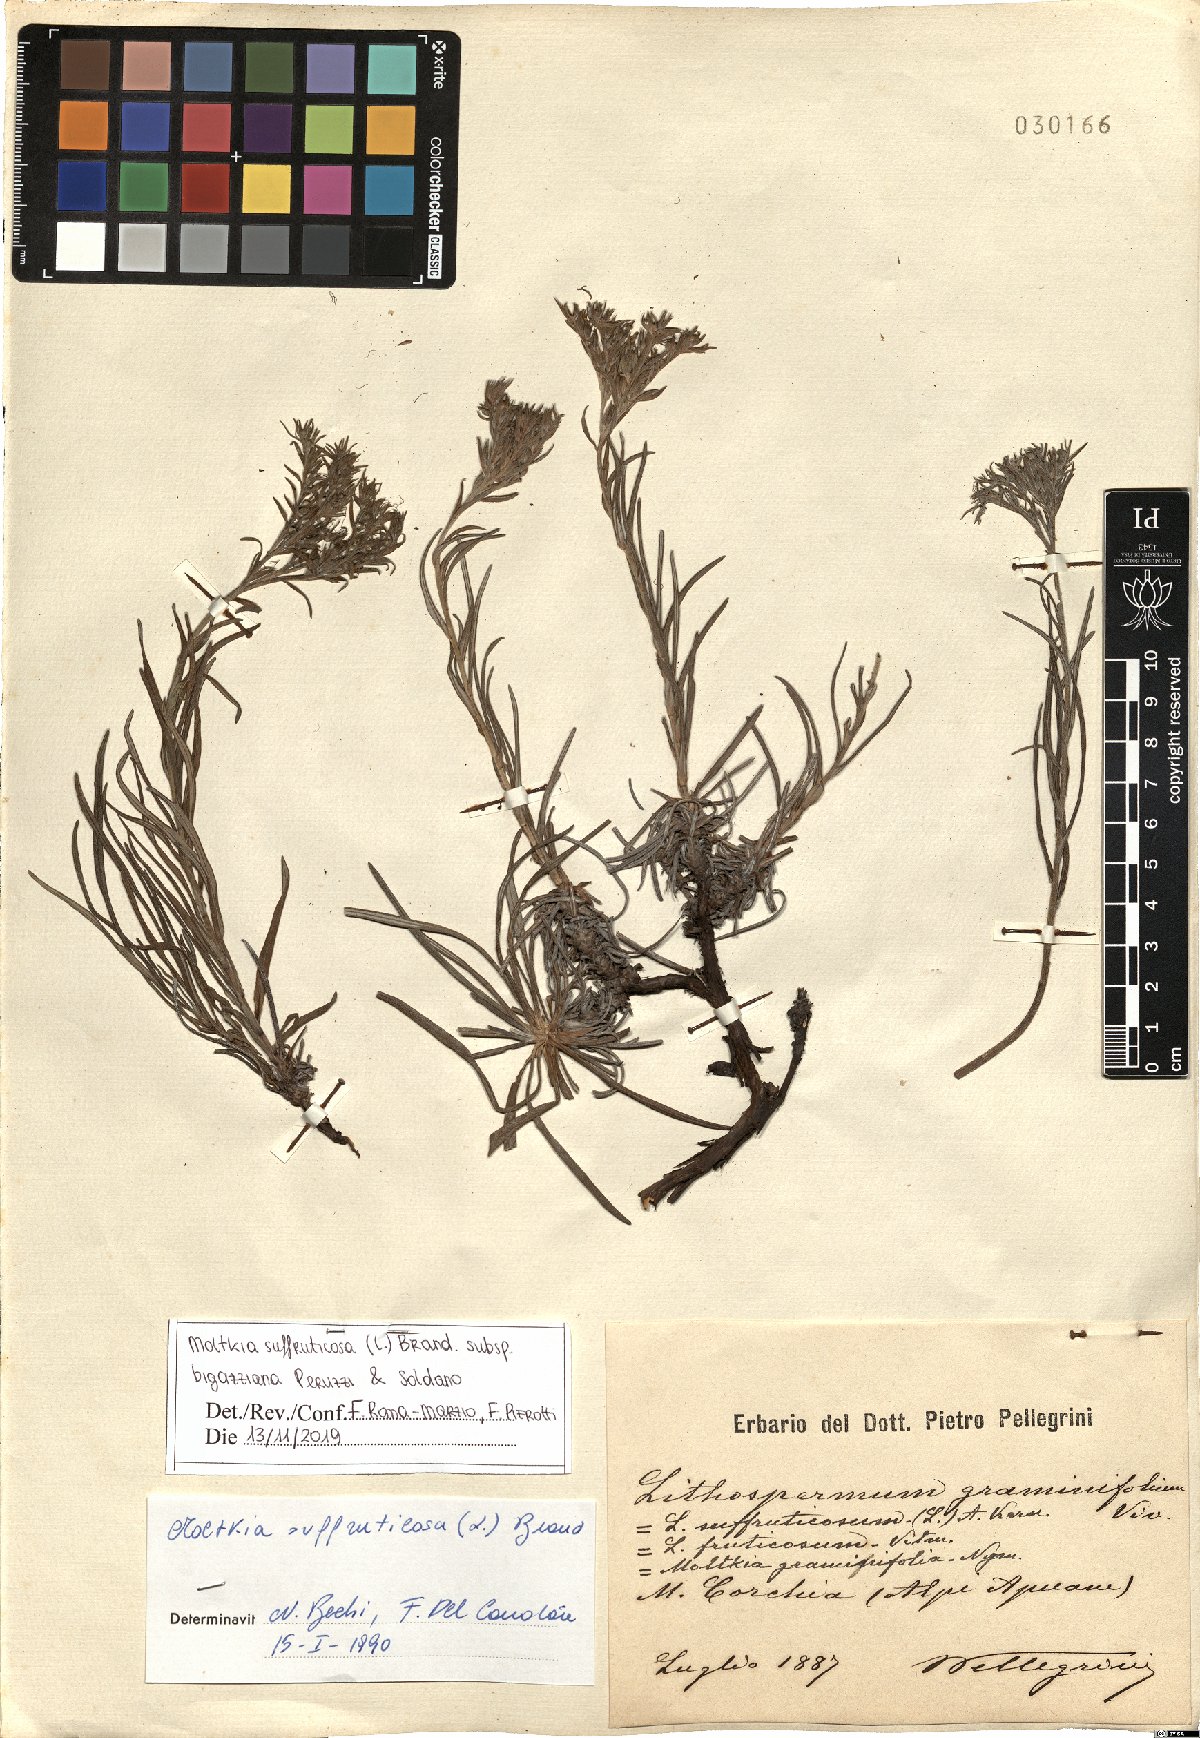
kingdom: Plantae
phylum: Tracheophyta
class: Magnoliopsida
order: Boraginales
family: Boraginaceae
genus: Moltkia
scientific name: Moltkia suffruticosa
